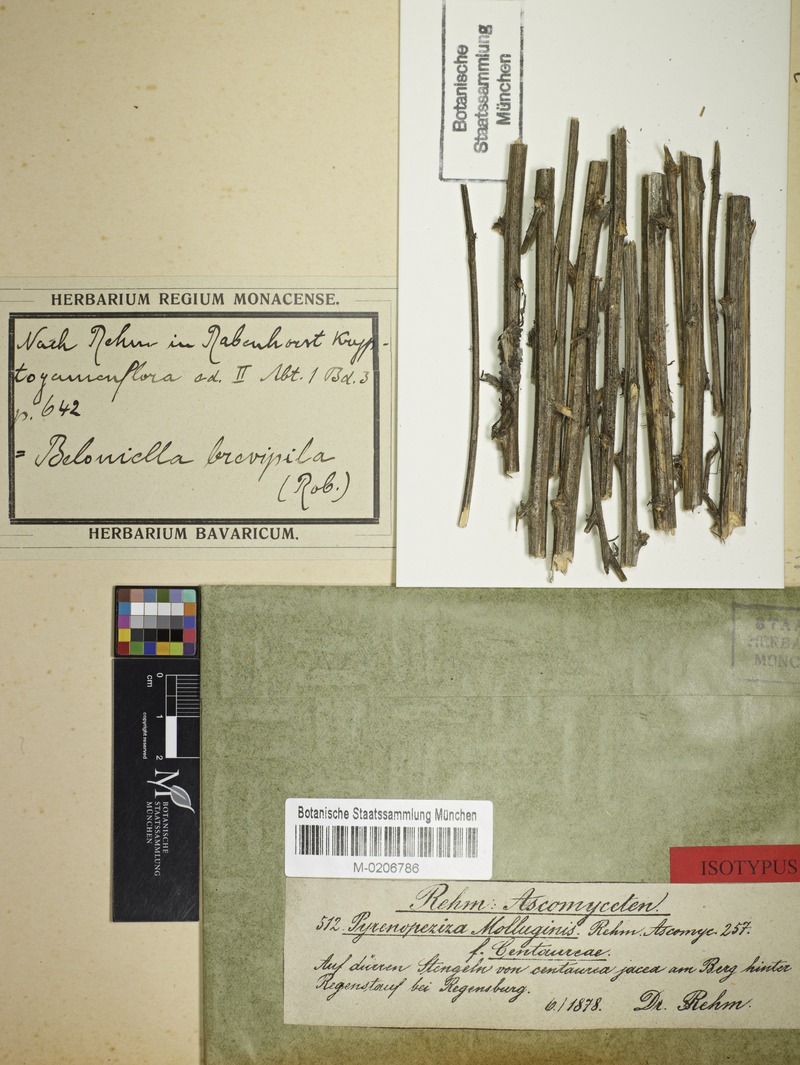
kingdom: Fungi
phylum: Ascomycota
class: Leotiomycetes
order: Helotiales
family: Ploettnerulaceae
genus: Pirottaea
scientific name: Pirottaea inopinata
